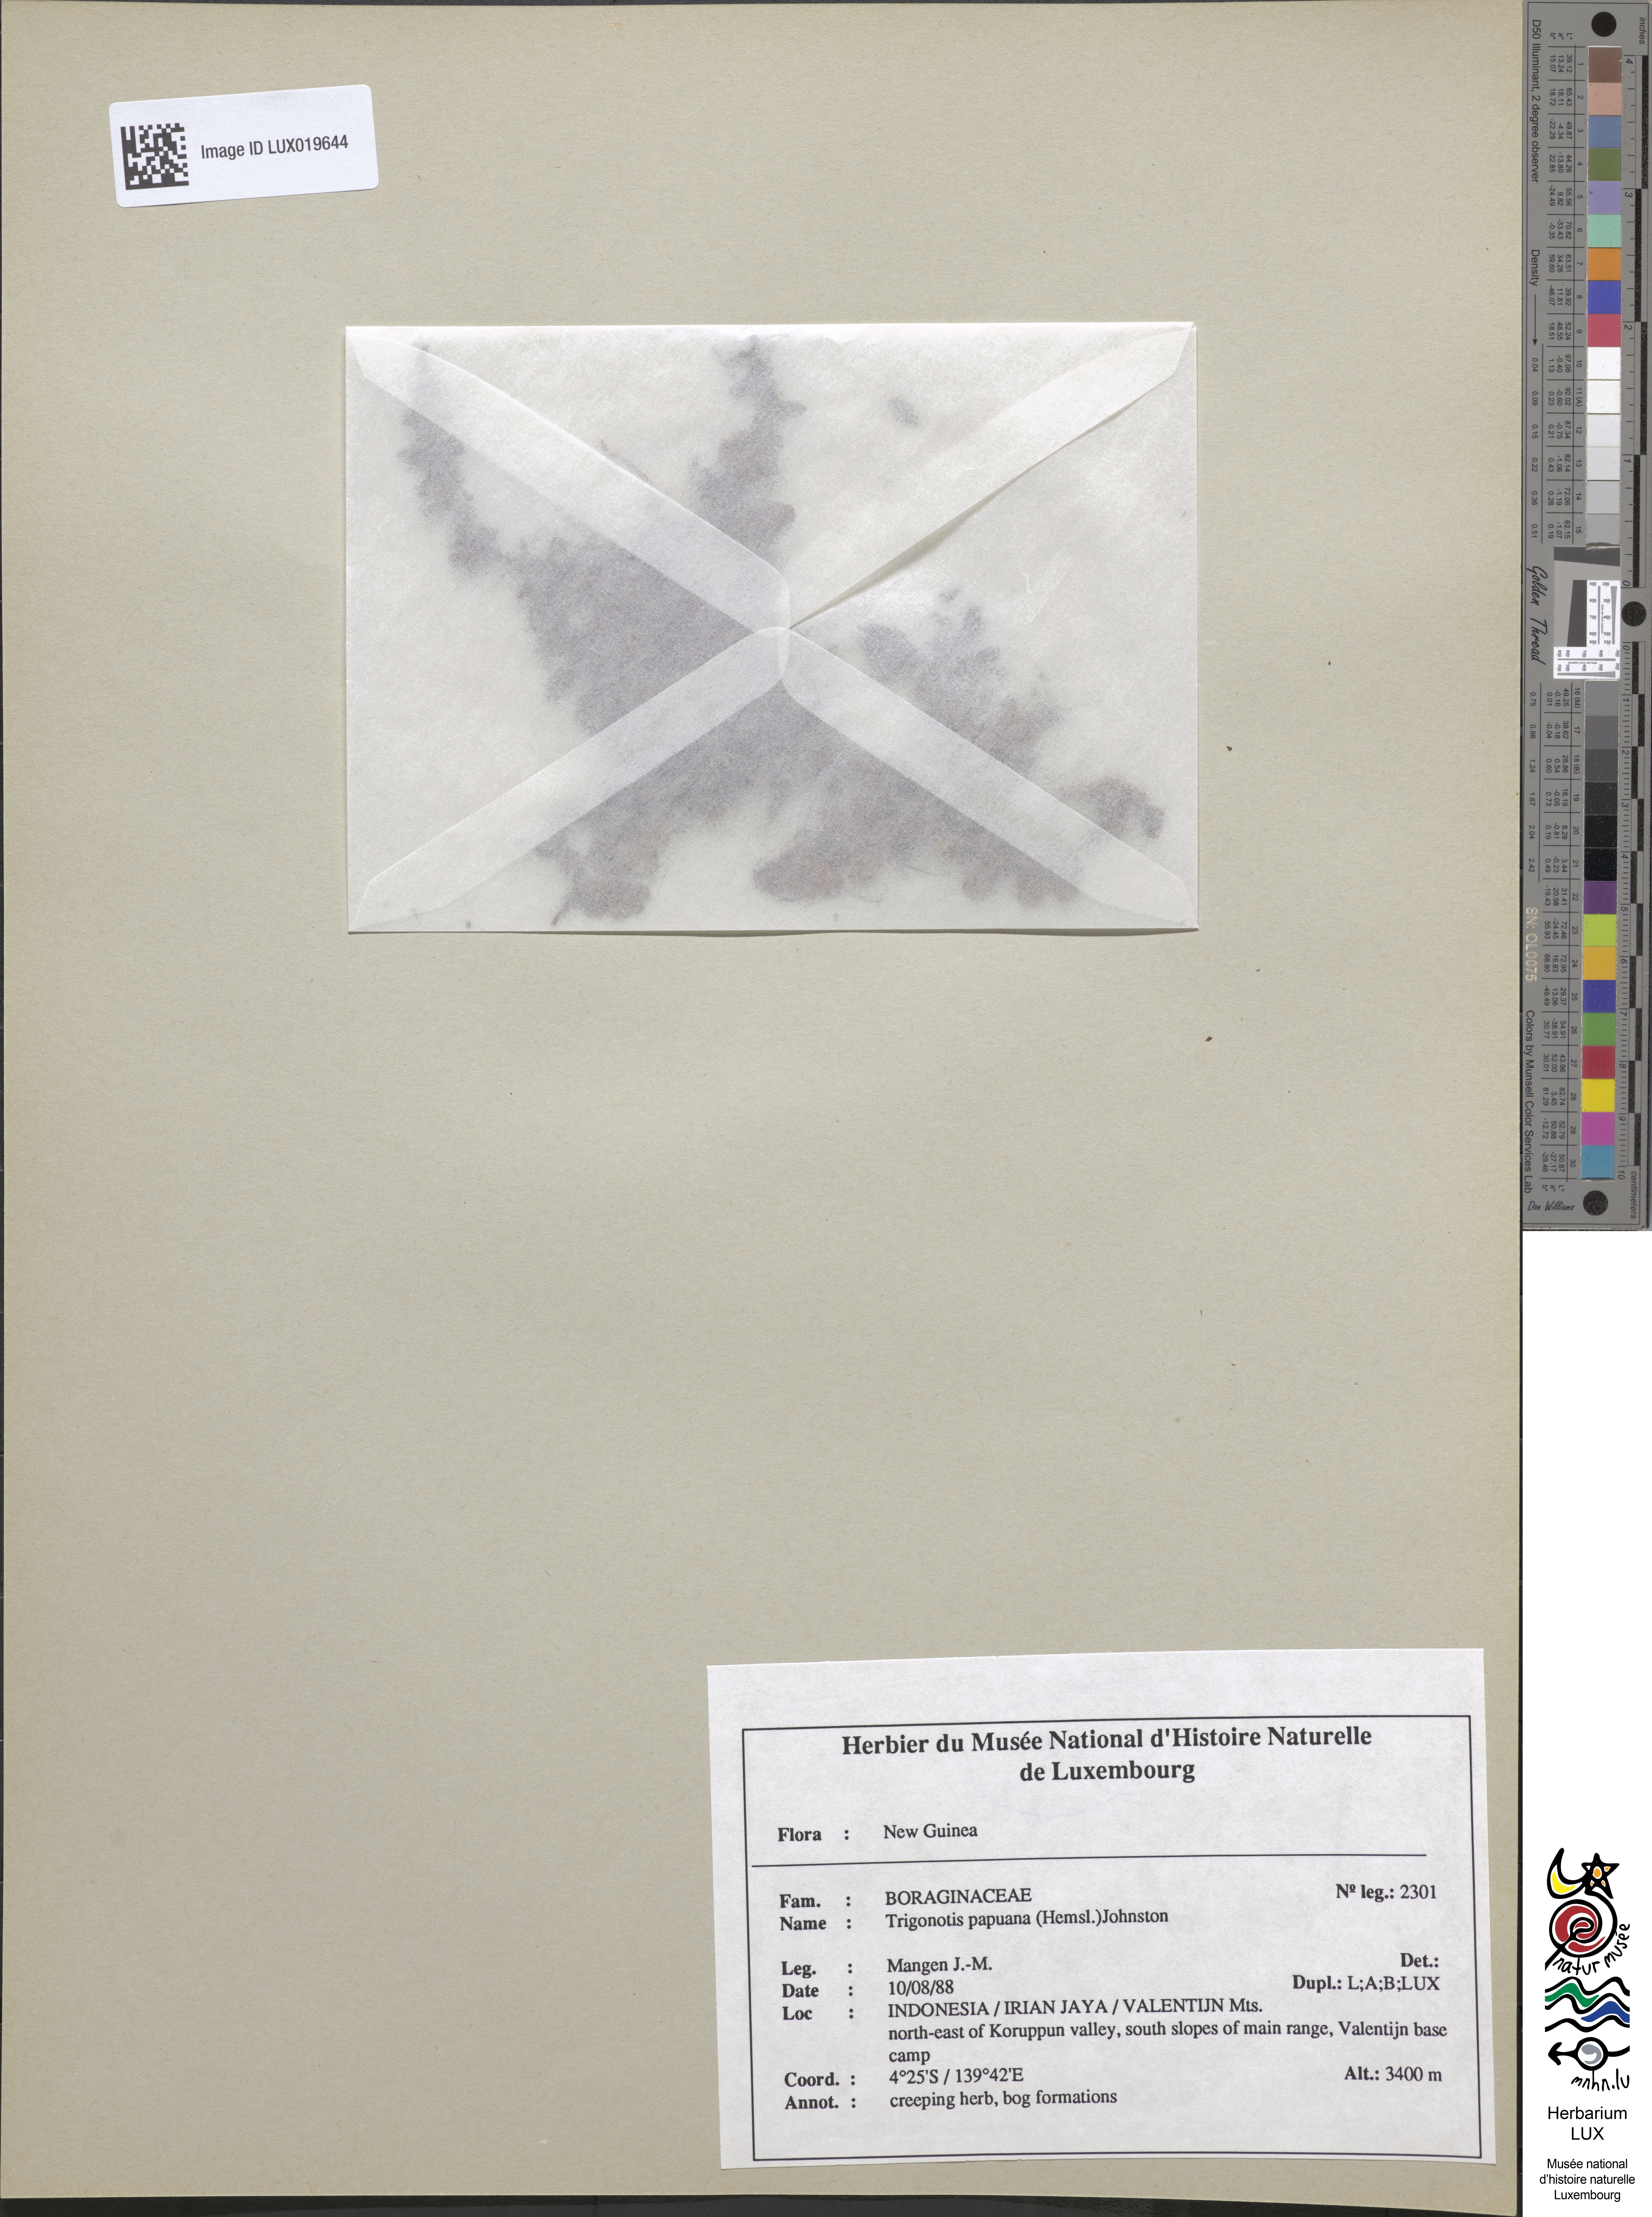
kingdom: Plantae
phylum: Tracheophyta
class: Magnoliopsida
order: Boraginales
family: Boraginaceae
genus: Trigonotis
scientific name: Trigonotis papuana
